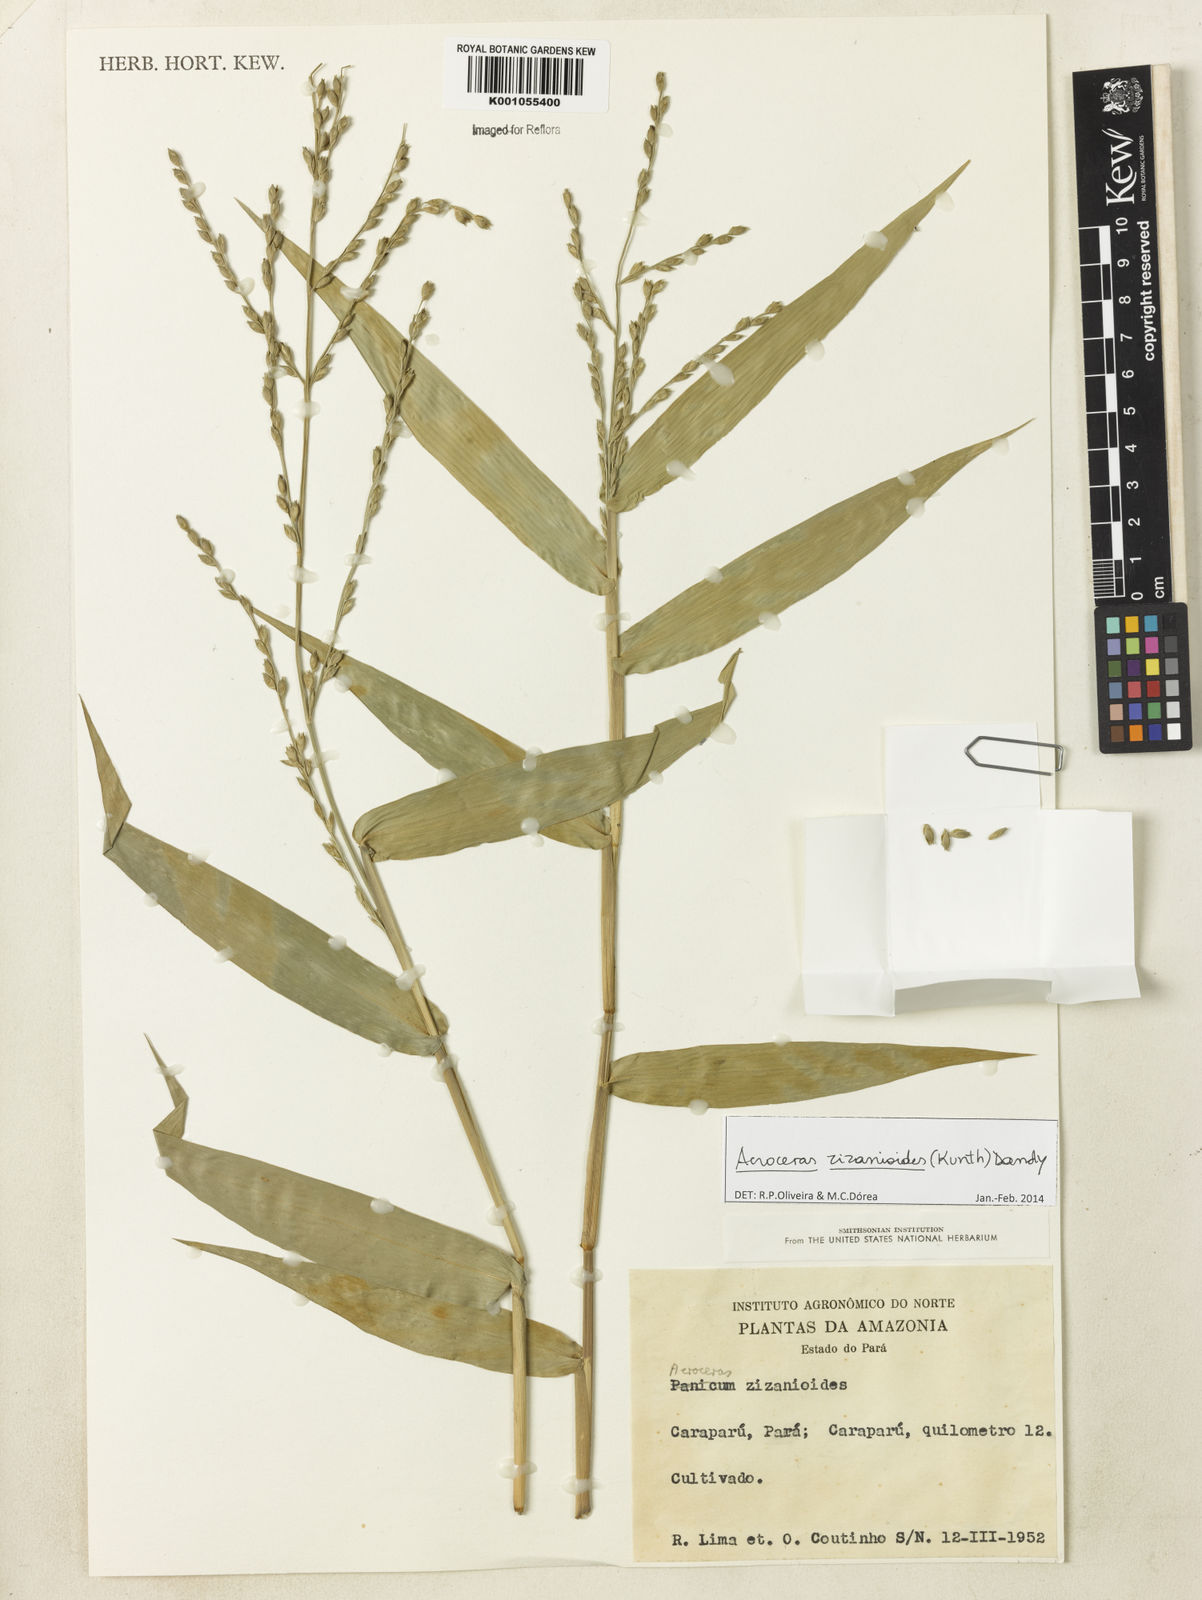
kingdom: Plantae
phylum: Tracheophyta
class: Liliopsida
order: Poales
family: Poaceae
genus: Acroceras
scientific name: Acroceras zizanioides
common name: Oat grass
